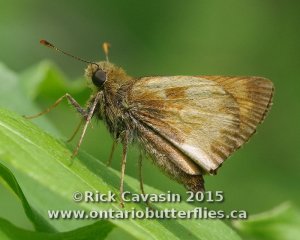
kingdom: Animalia
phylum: Arthropoda
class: Insecta
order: Lepidoptera
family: Hesperiidae
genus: Lon
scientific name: Lon hobomok
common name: Hobomok Skipper
